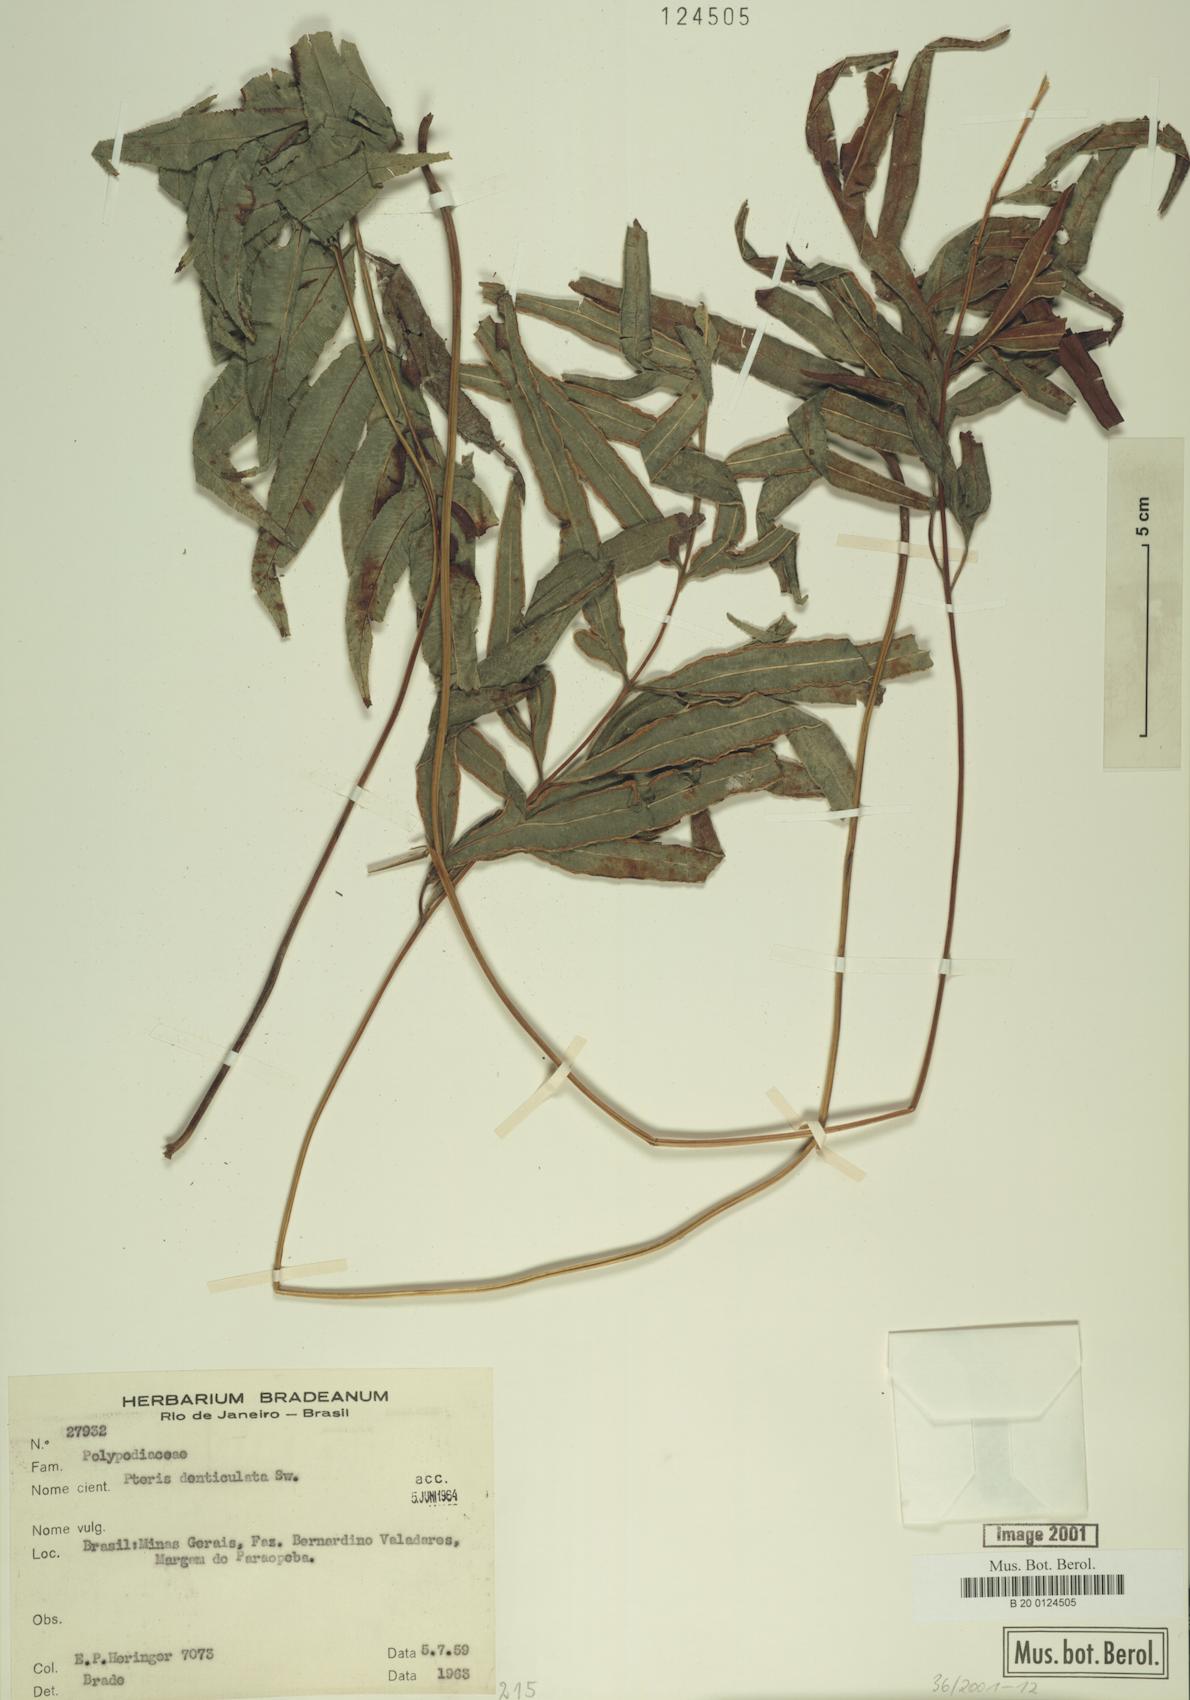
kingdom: Plantae
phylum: Tracheophyta
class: Polypodiopsida
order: Polypodiales
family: Pteridaceae
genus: Pteris
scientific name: Pteris denticulata
